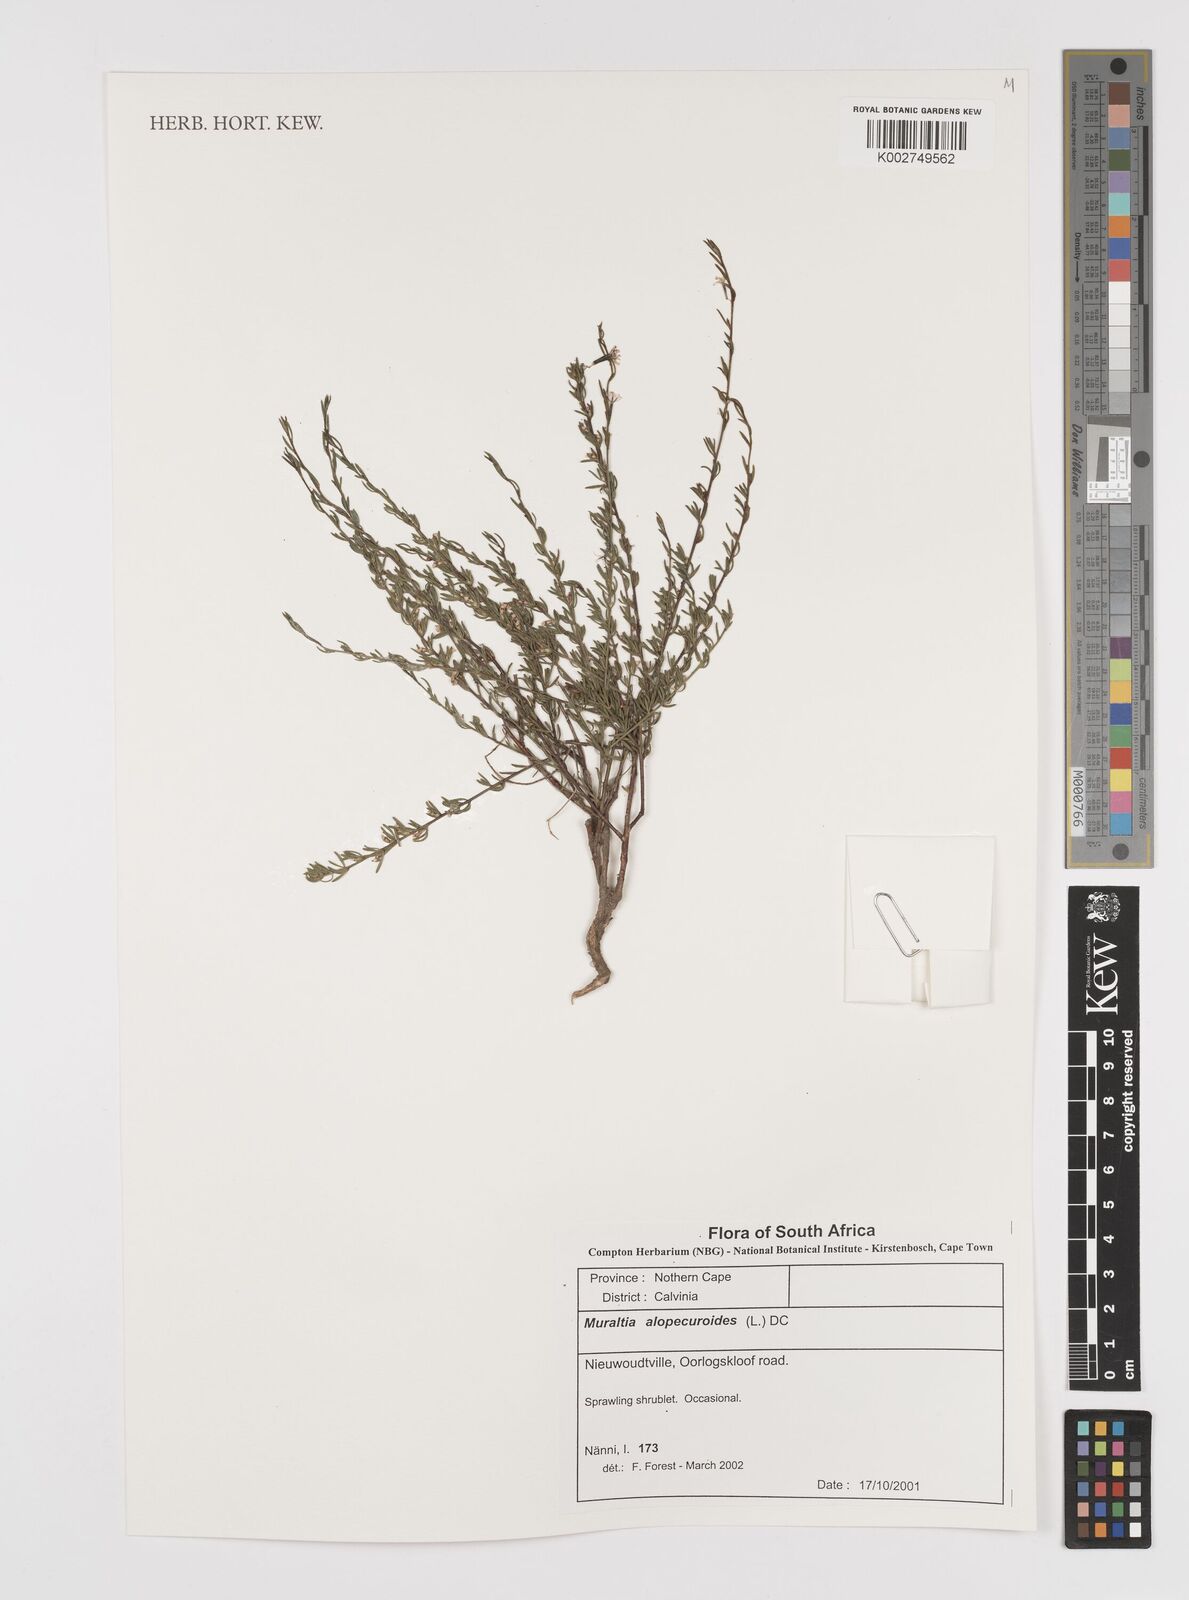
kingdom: Plantae
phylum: Tracheophyta
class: Magnoliopsida
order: Fabales
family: Polygalaceae
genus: Muraltia
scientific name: Muraltia alopecuroides
